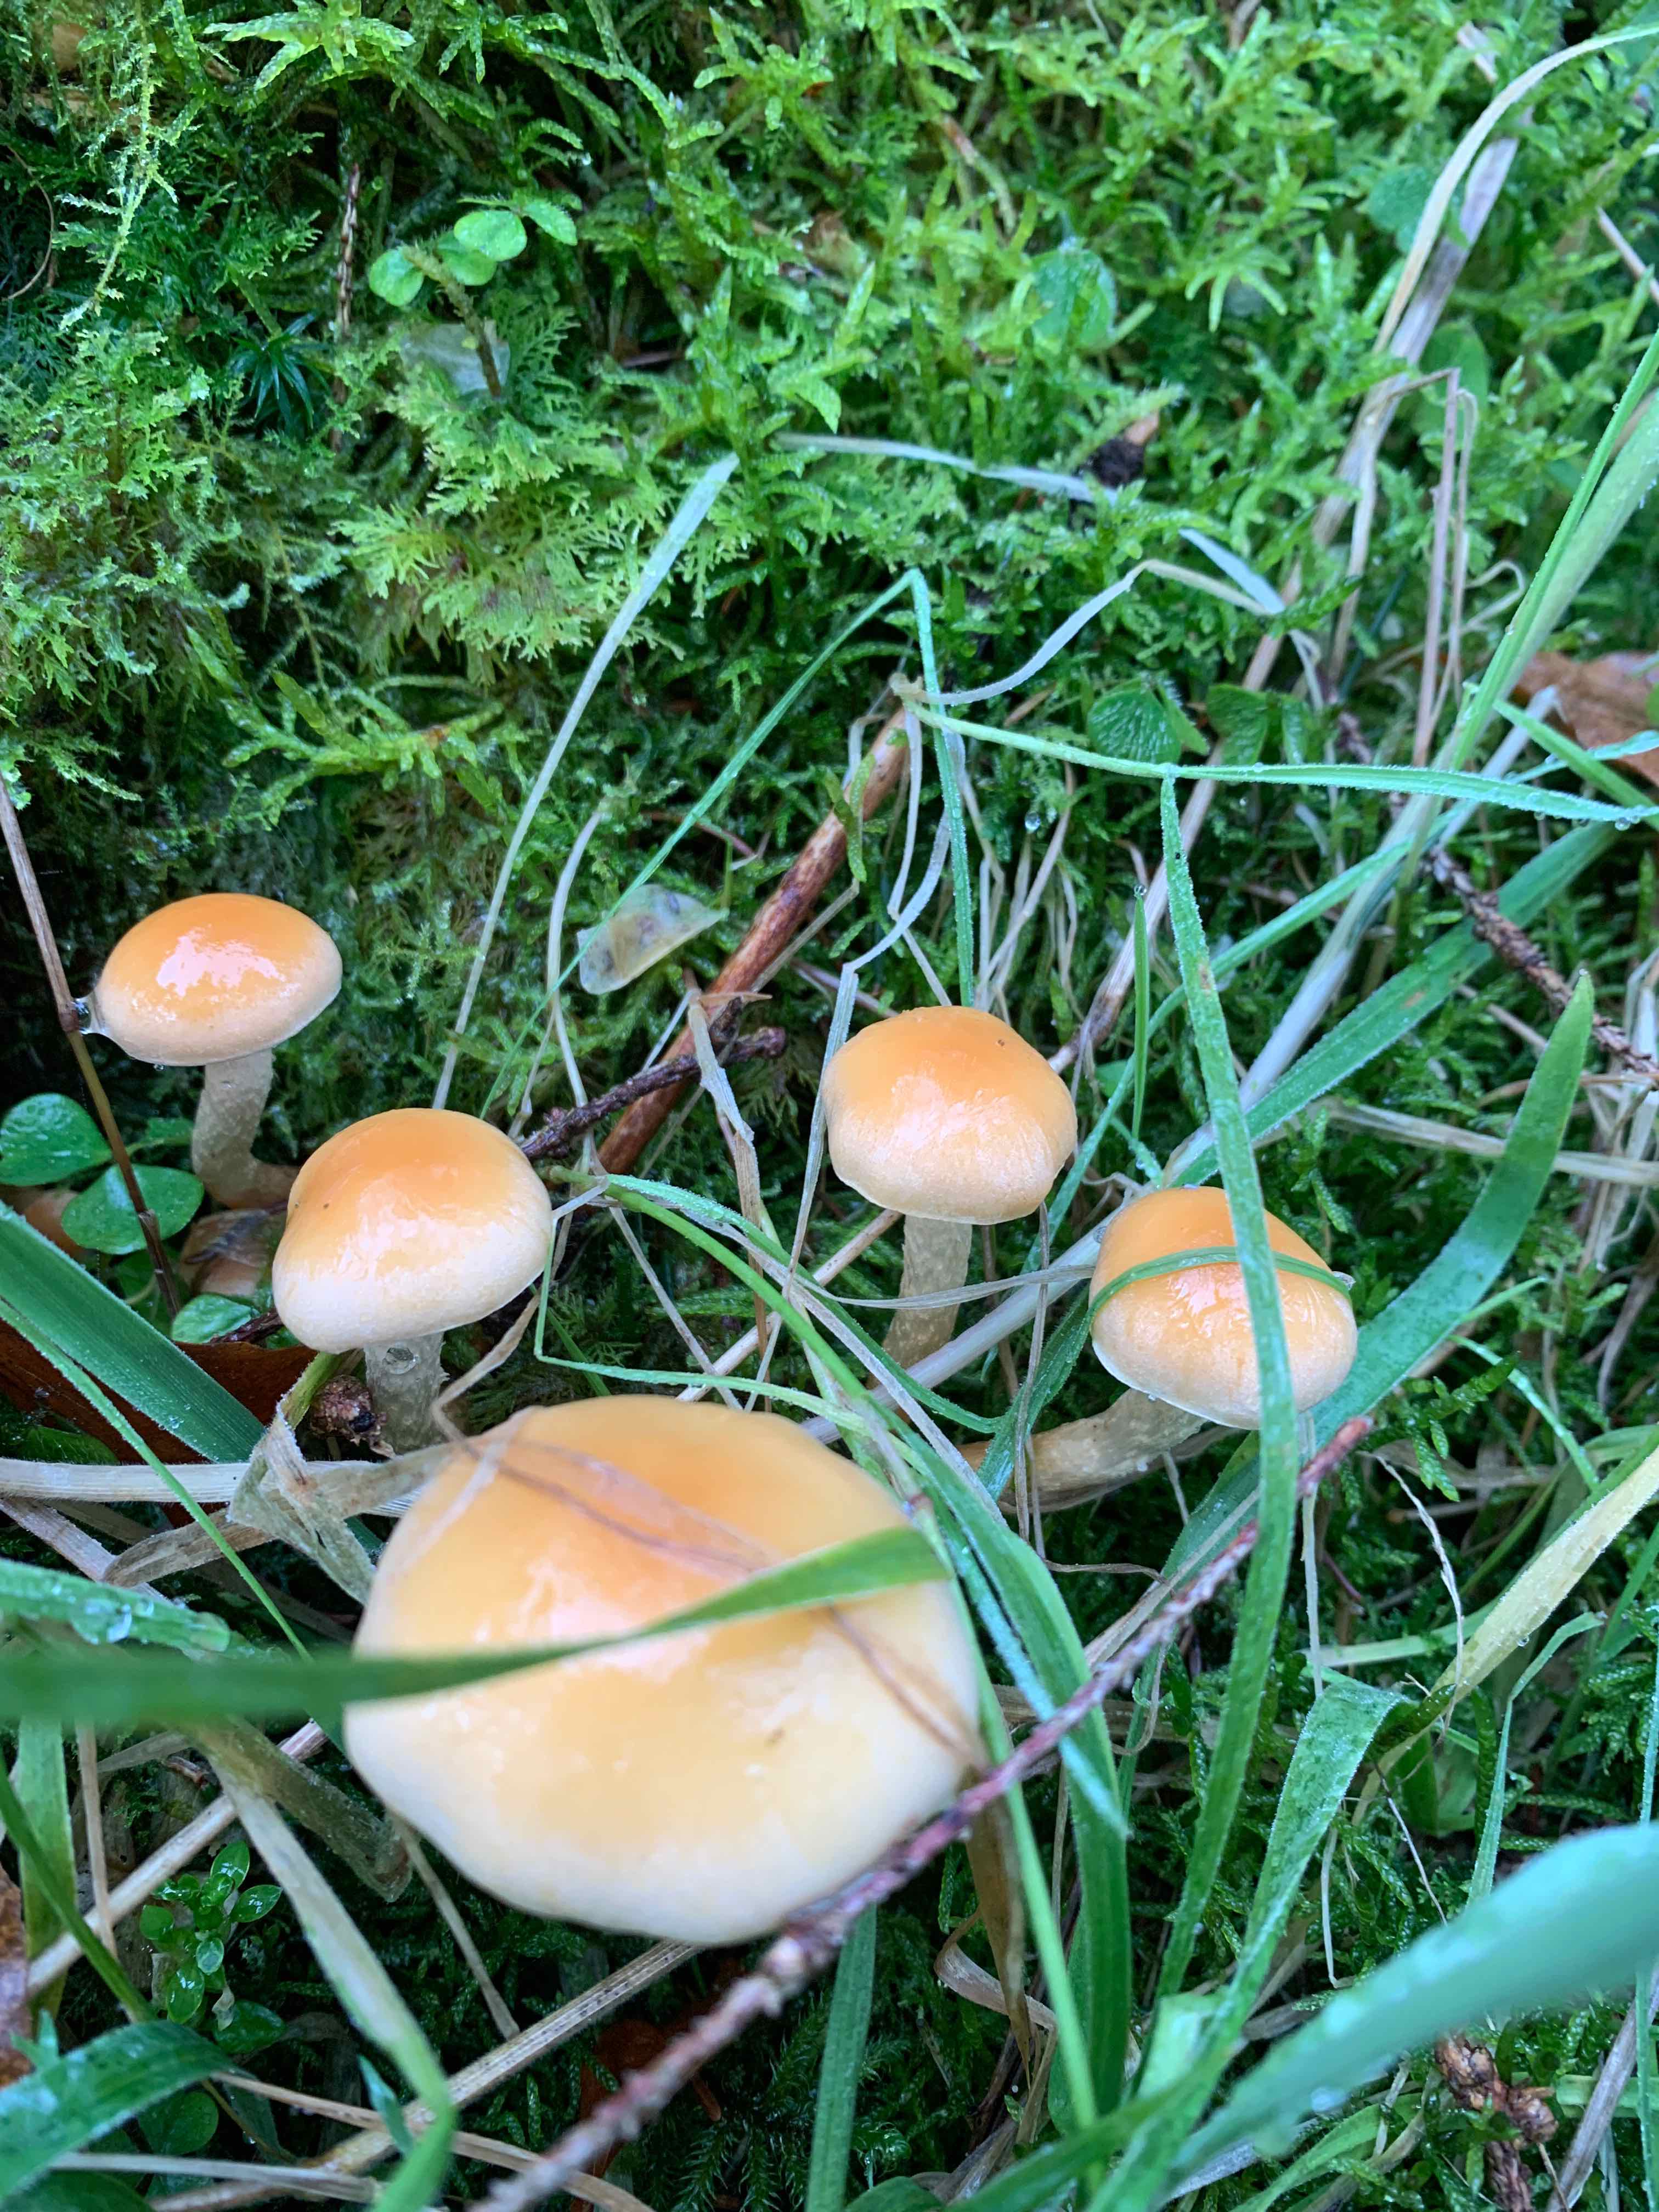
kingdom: Fungi
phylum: Basidiomycota
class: Agaricomycetes
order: Agaricales
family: Strophariaceae
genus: Hypholoma
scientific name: Hypholoma
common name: svovlhat
